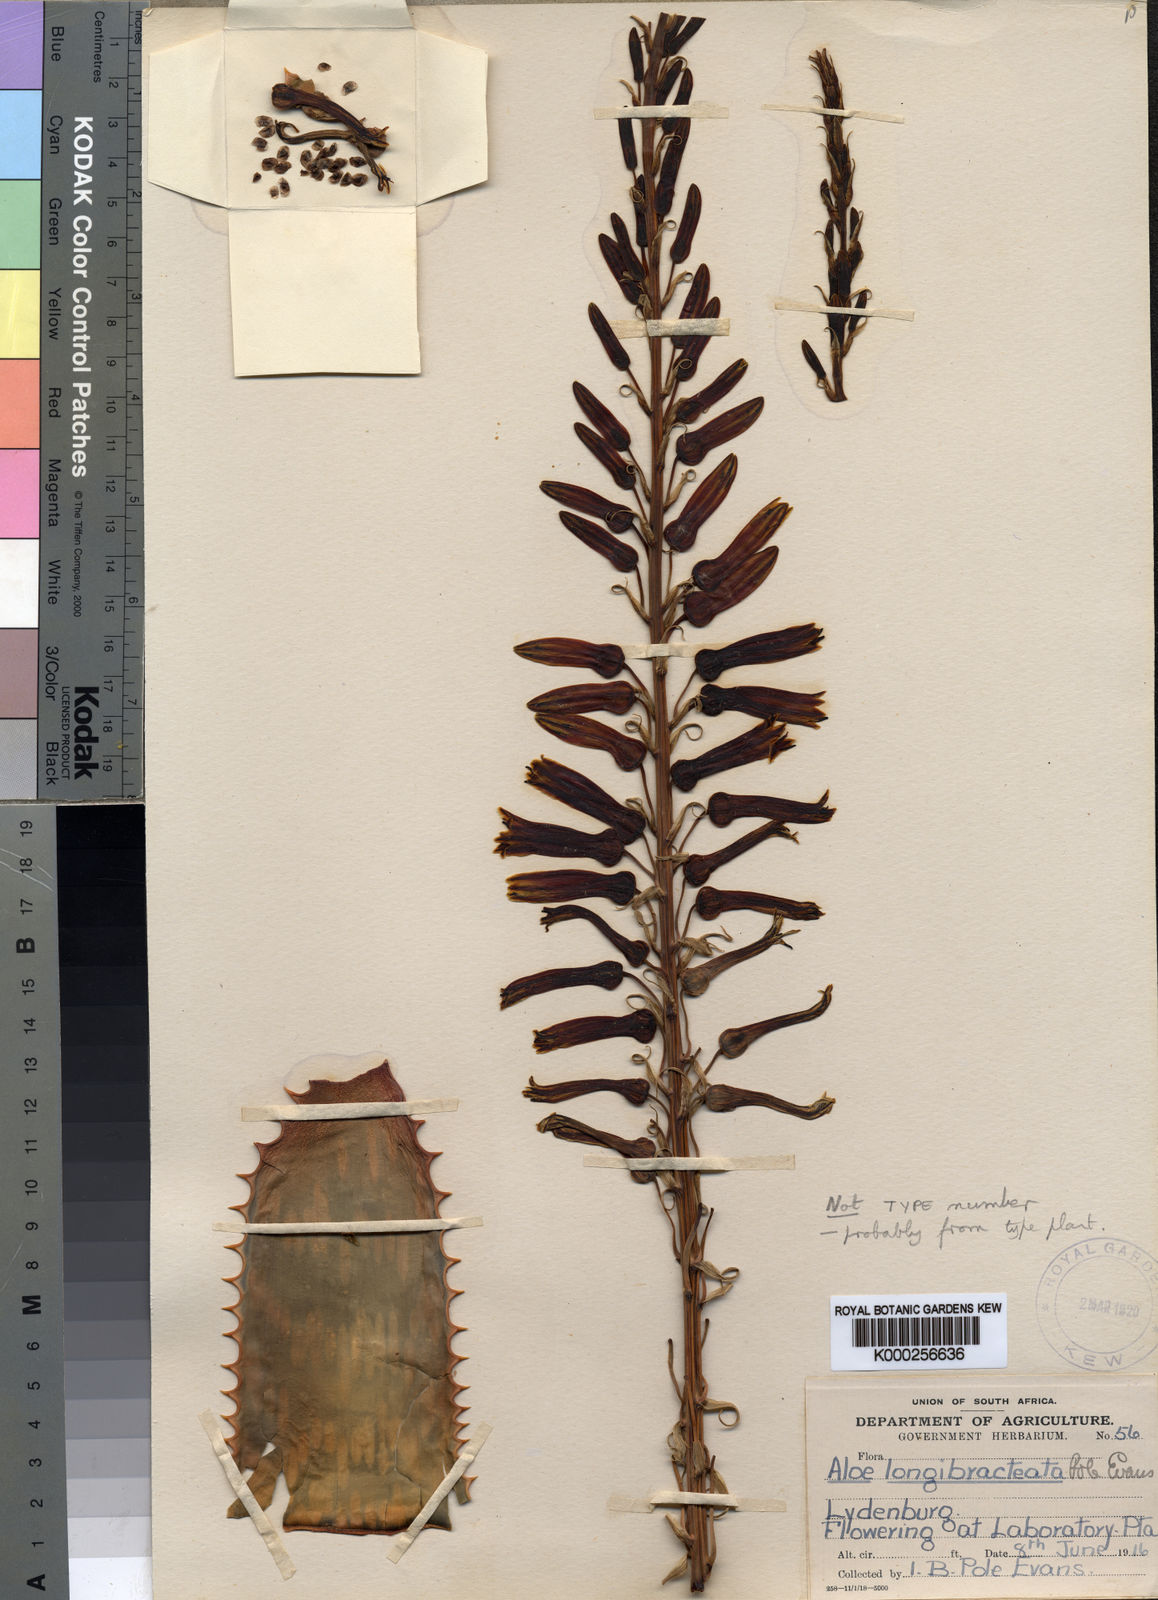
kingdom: Plantae
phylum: Tracheophyta
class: Liliopsida
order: Asparagales
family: Asphodelaceae
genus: Aloe
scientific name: Aloe longibracteata
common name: Limpopo spotted aloe
